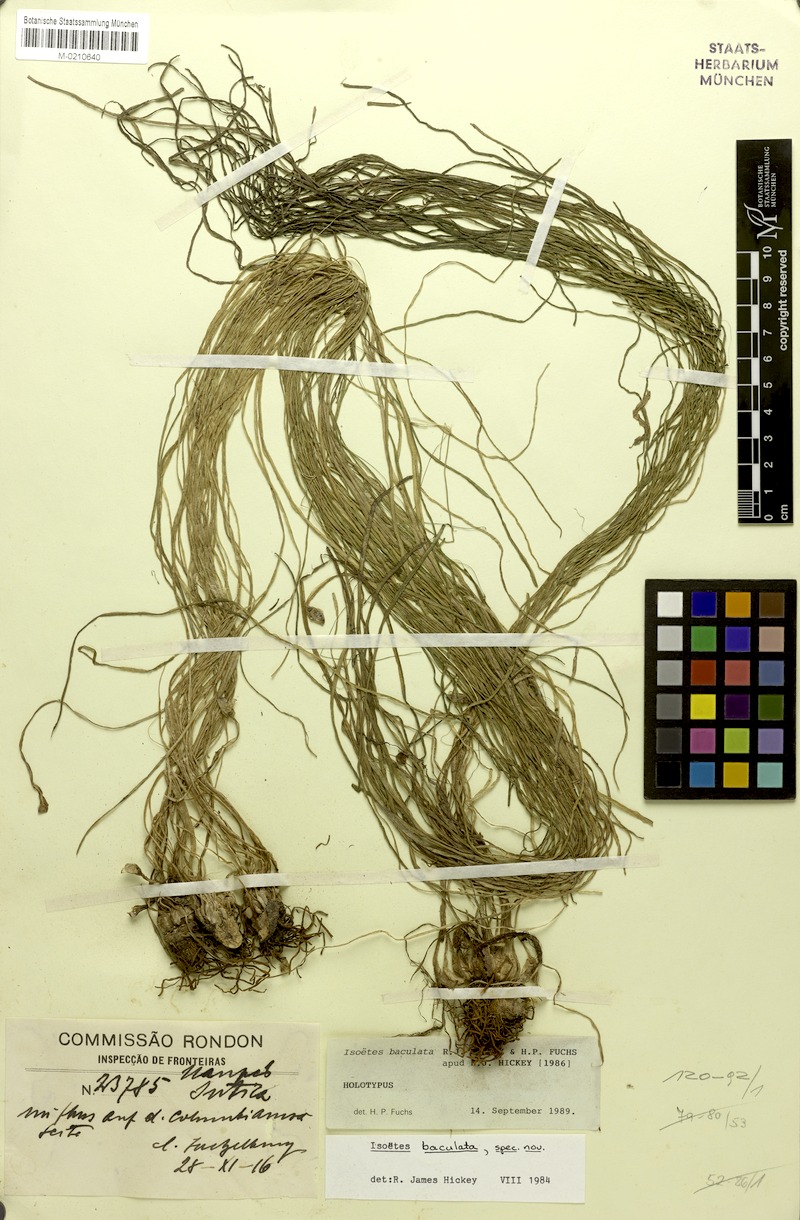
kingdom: Plantae
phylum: Tracheophyta
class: Lycopodiopsida
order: Isoetales
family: Isoetaceae
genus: Isoetes
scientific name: Isoetes baculata
